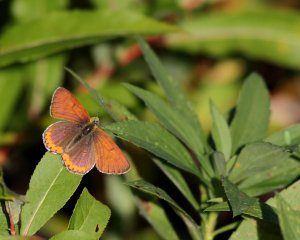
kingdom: Animalia
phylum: Arthropoda
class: Insecta
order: Lepidoptera
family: Sesiidae
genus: Sesia
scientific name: Sesia Lycaena hyllus
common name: Bronze Copper
